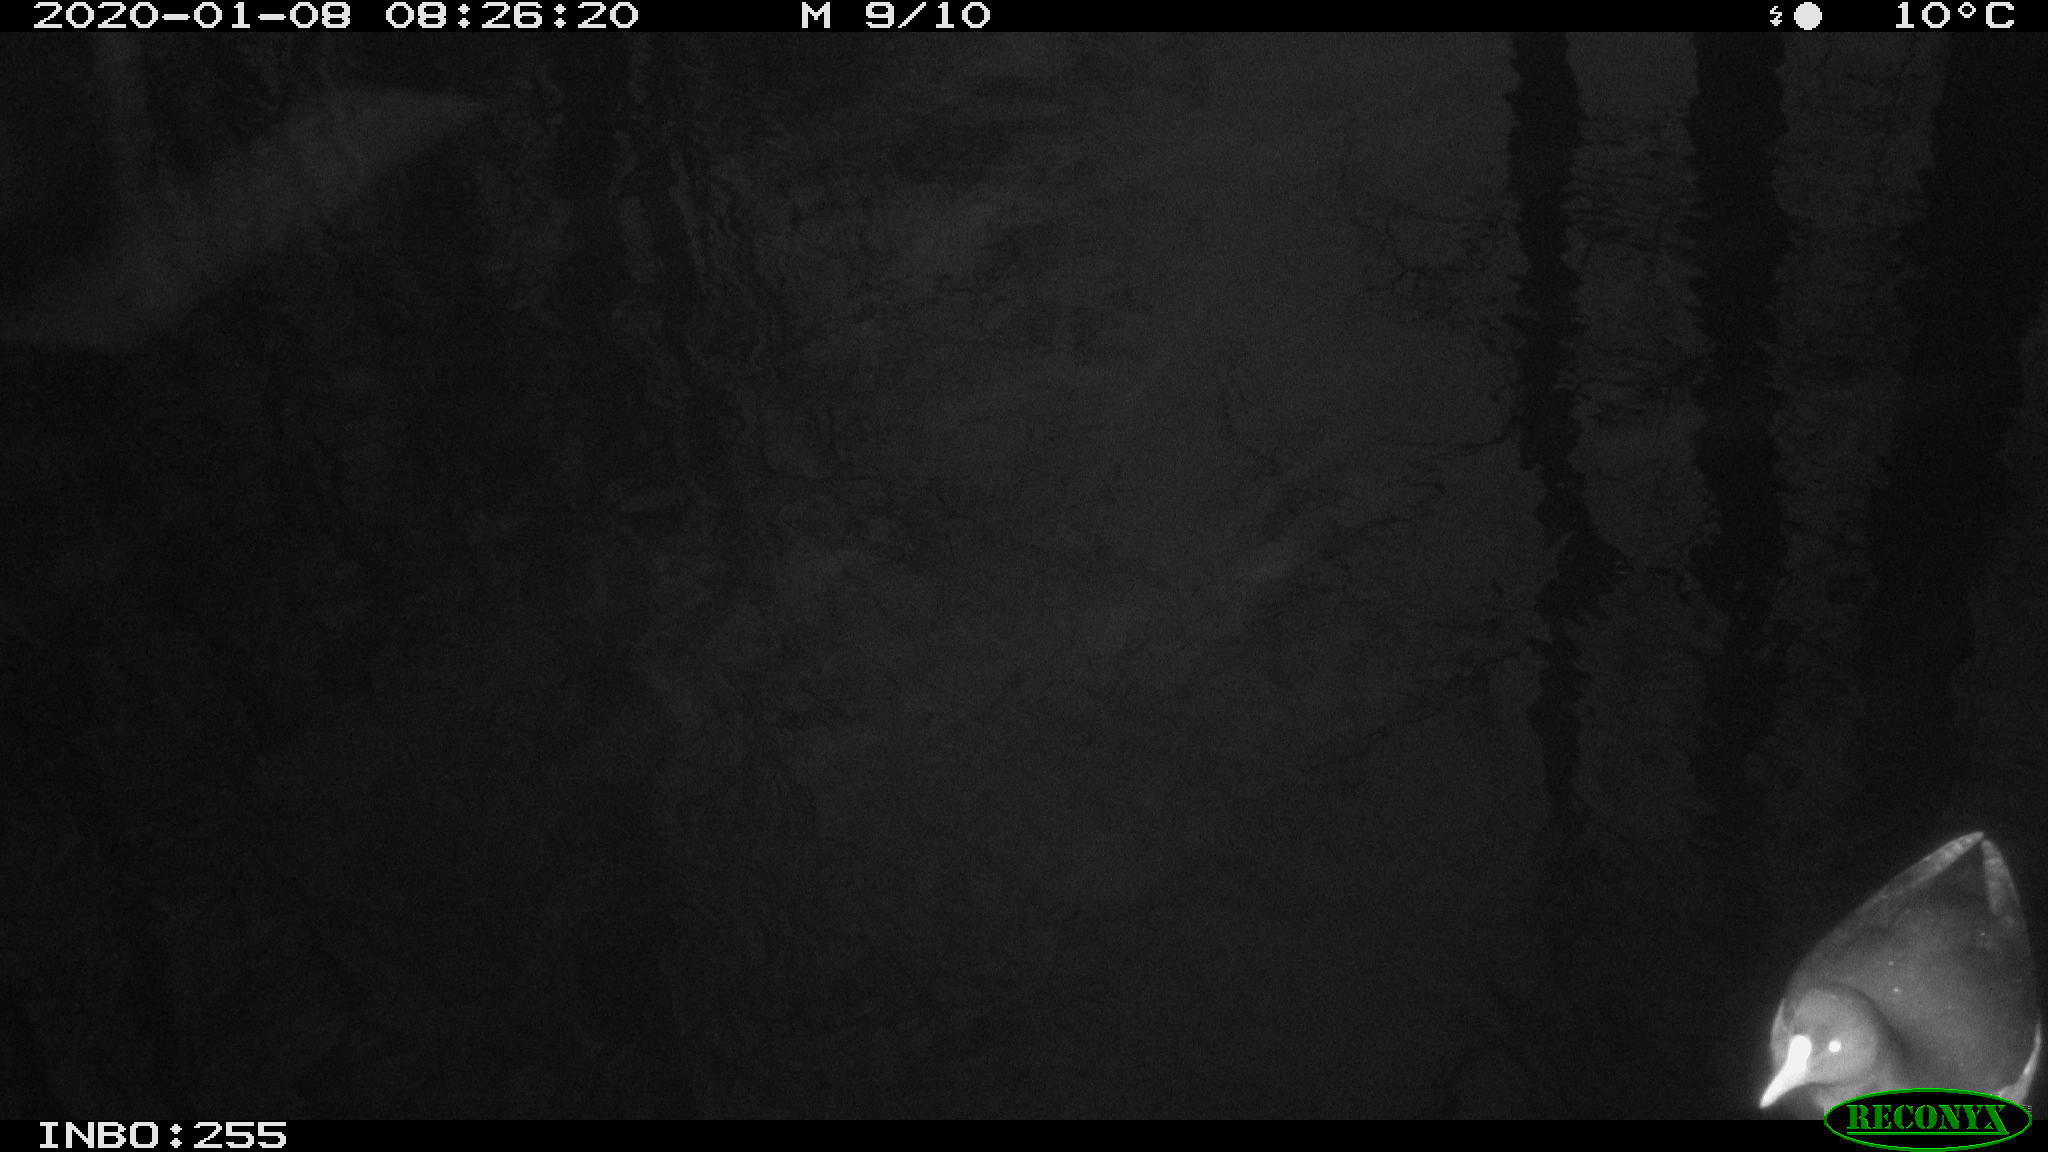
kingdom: Animalia
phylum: Chordata
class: Aves
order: Gruiformes
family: Rallidae
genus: Gallinula
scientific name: Gallinula chloropus
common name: Common moorhen
